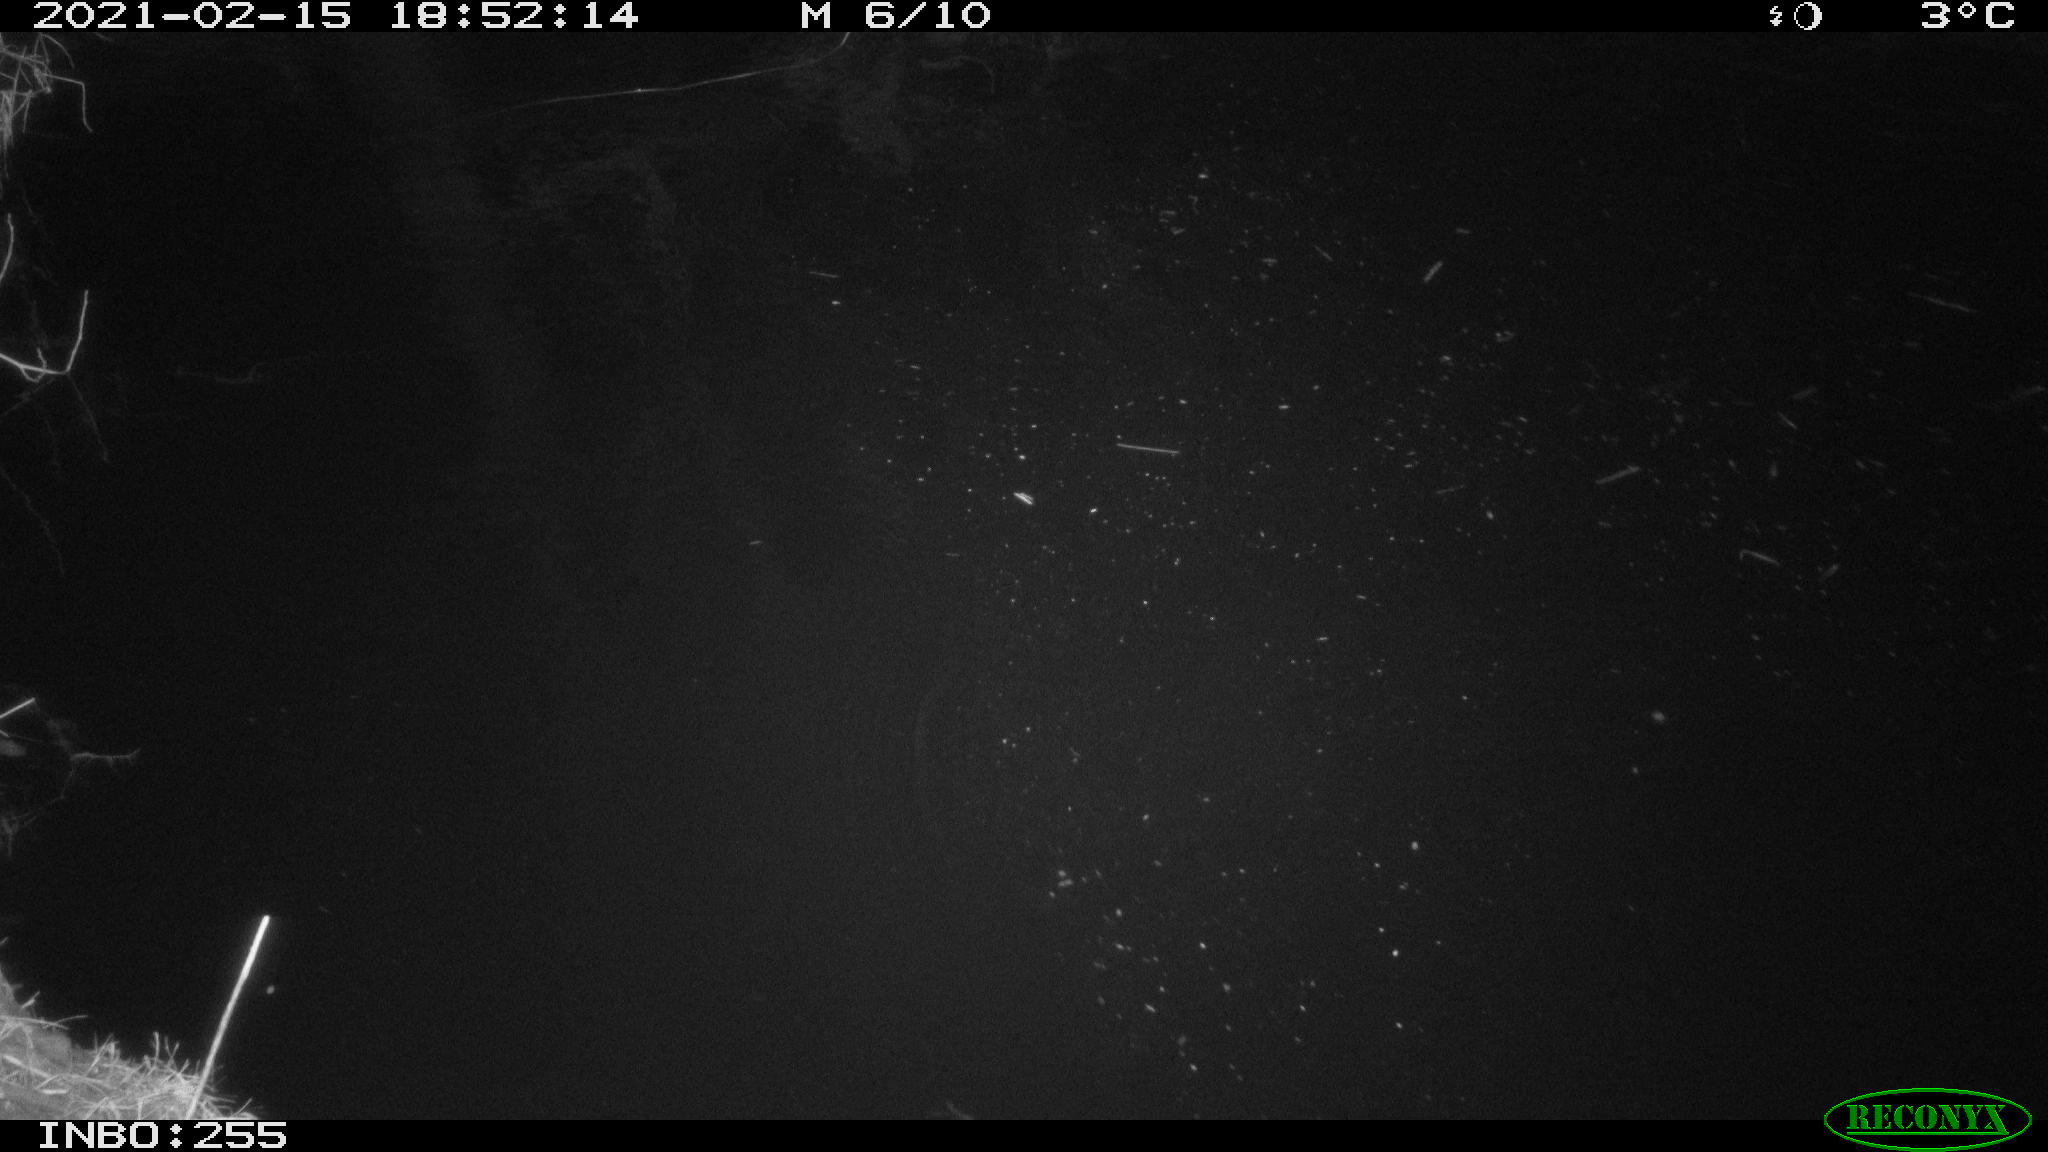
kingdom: Animalia
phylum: Chordata
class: Aves
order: Anseriformes
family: Anatidae
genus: Anas
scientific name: Anas platyrhynchos
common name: Mallard
